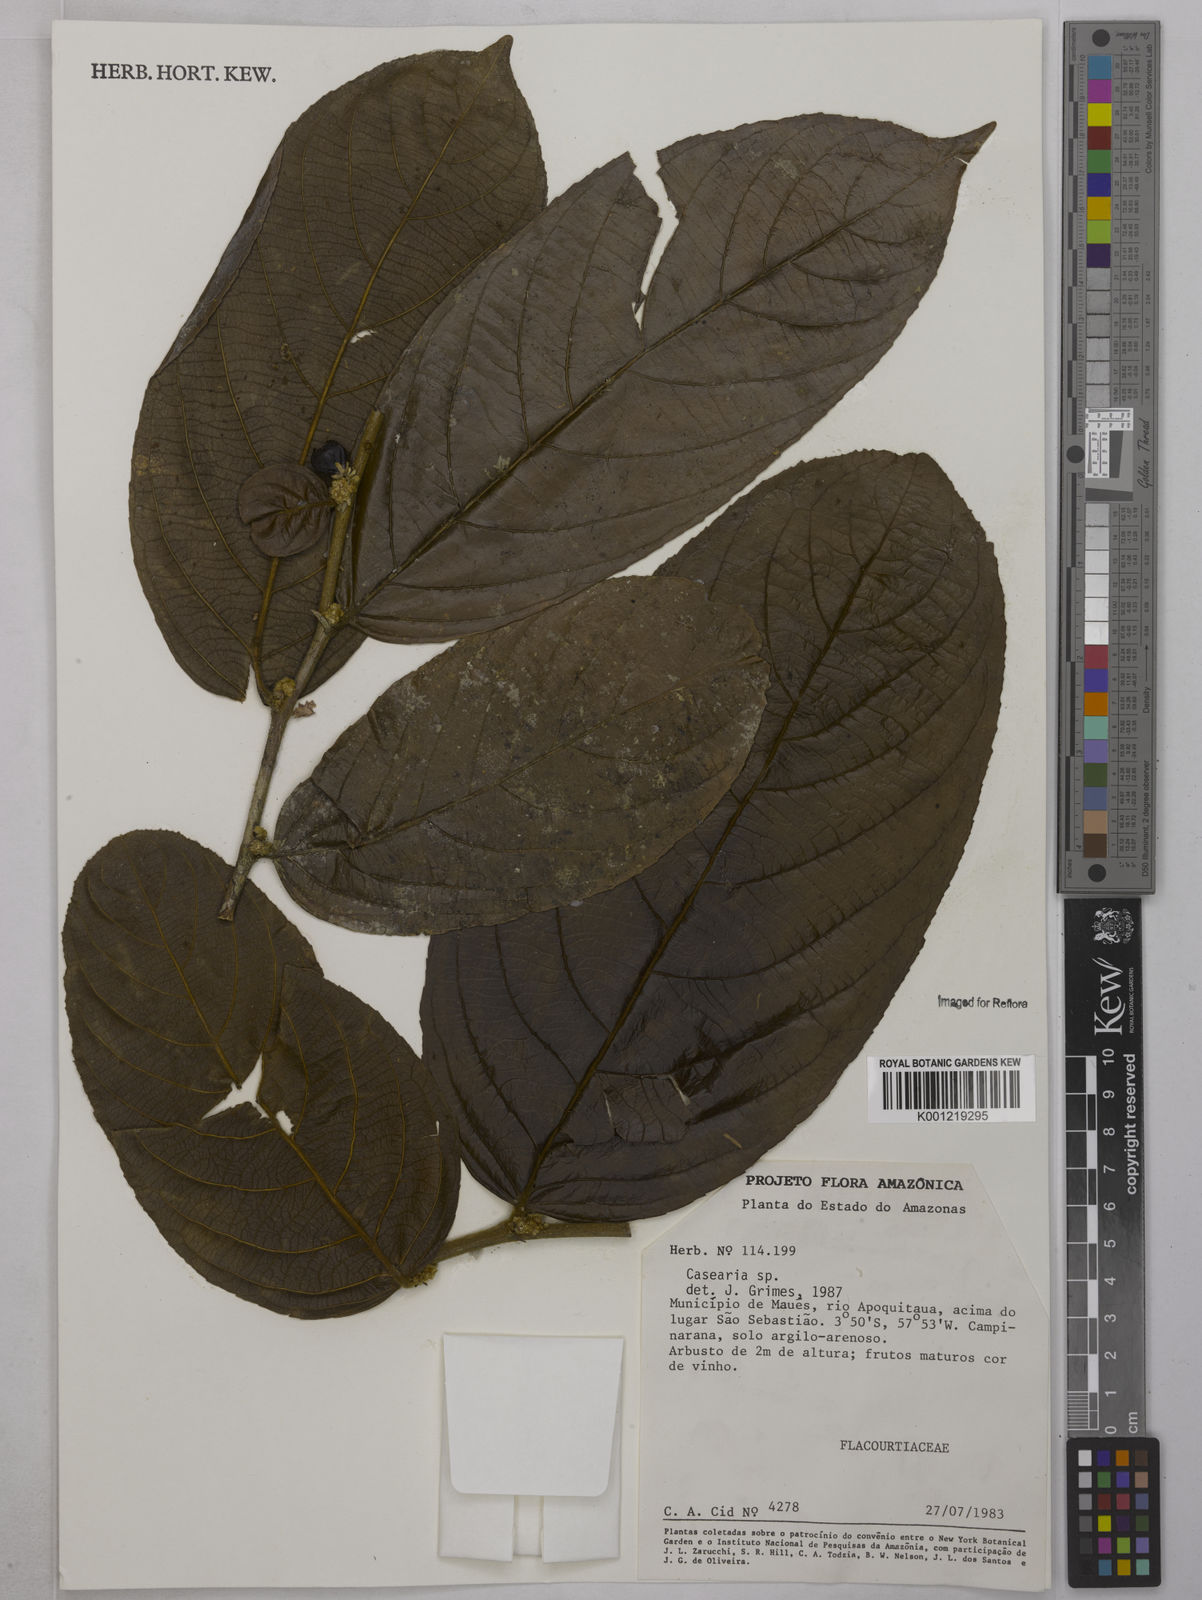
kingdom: Plantae
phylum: Tracheophyta
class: Magnoliopsida
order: Malpighiales
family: Salicaceae
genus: Casearia
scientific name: Casearia
